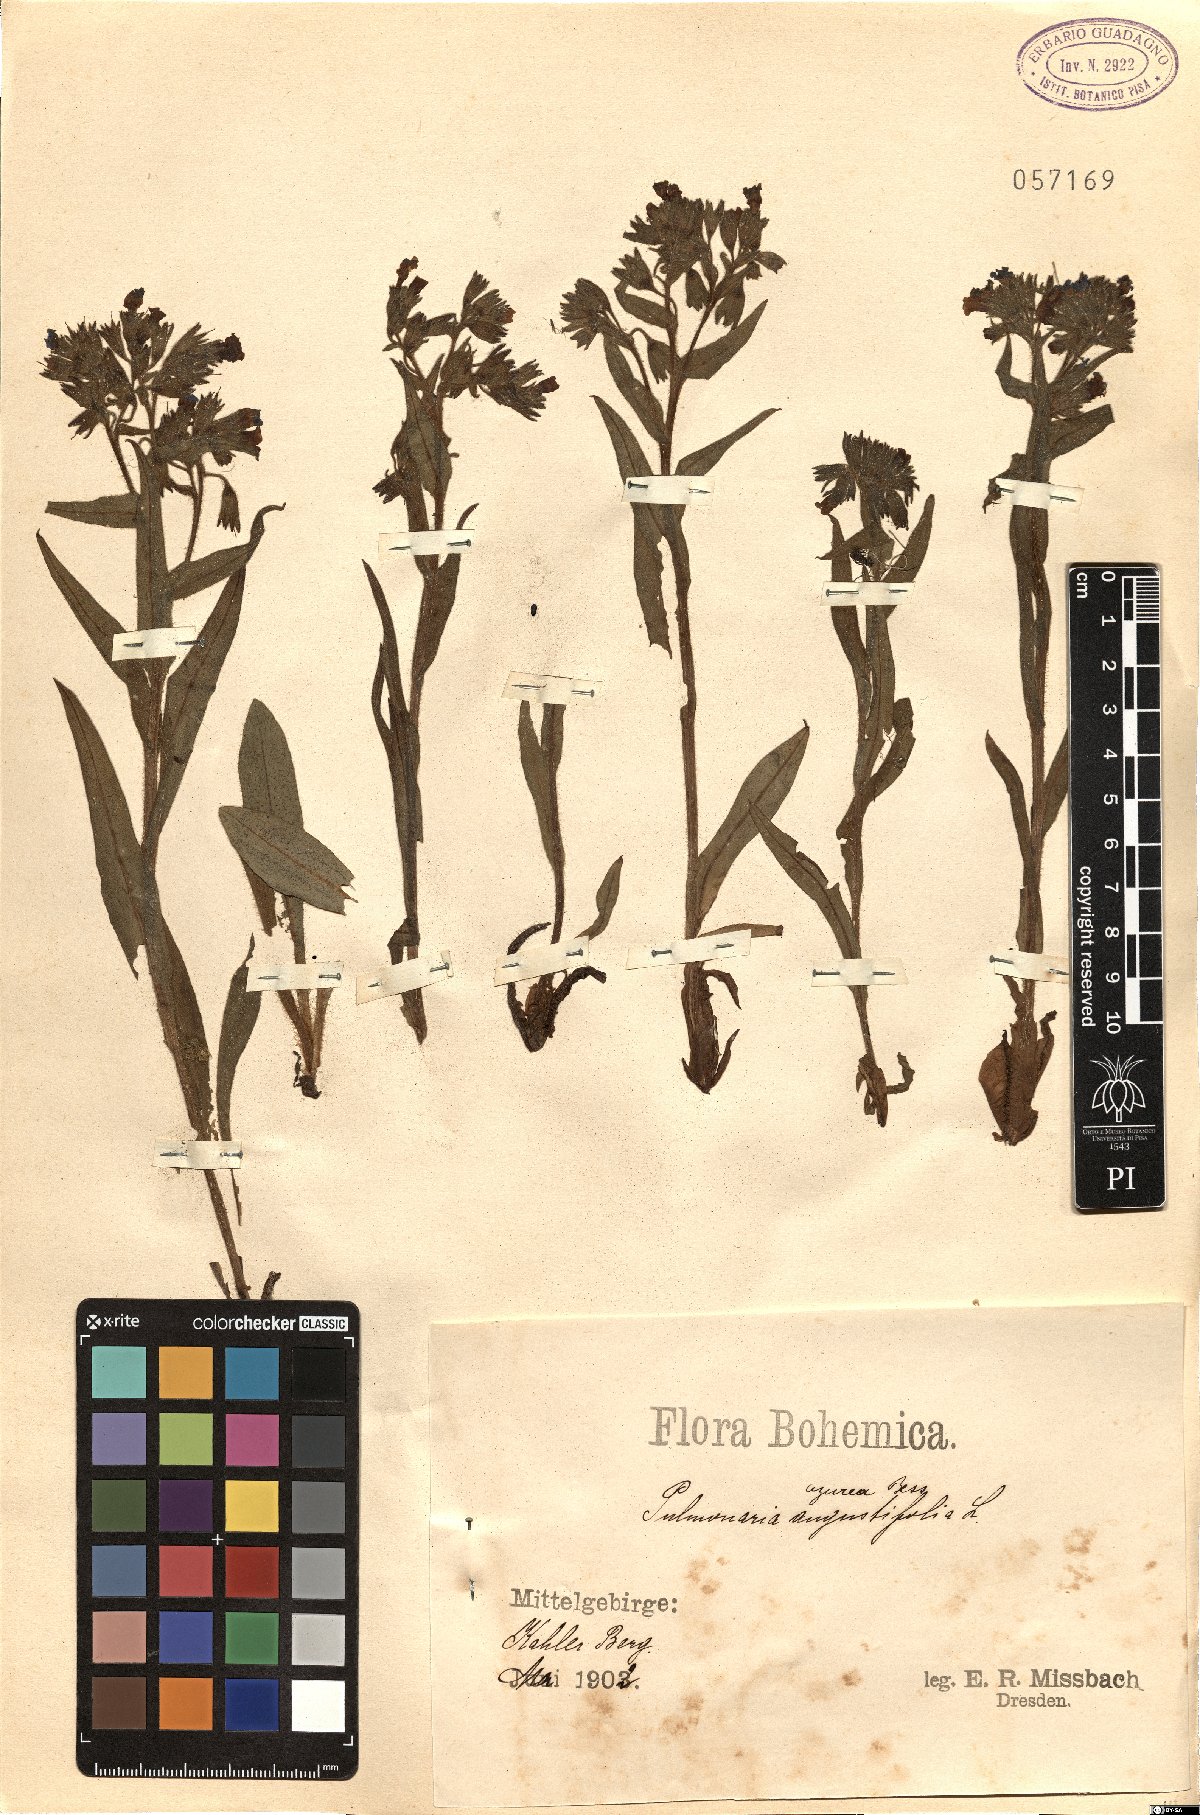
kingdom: Plantae
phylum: Tracheophyta
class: Magnoliopsida
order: Boraginales
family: Boraginaceae
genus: Pulmonaria
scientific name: Pulmonaria angustifolia
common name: Blue cowslip
